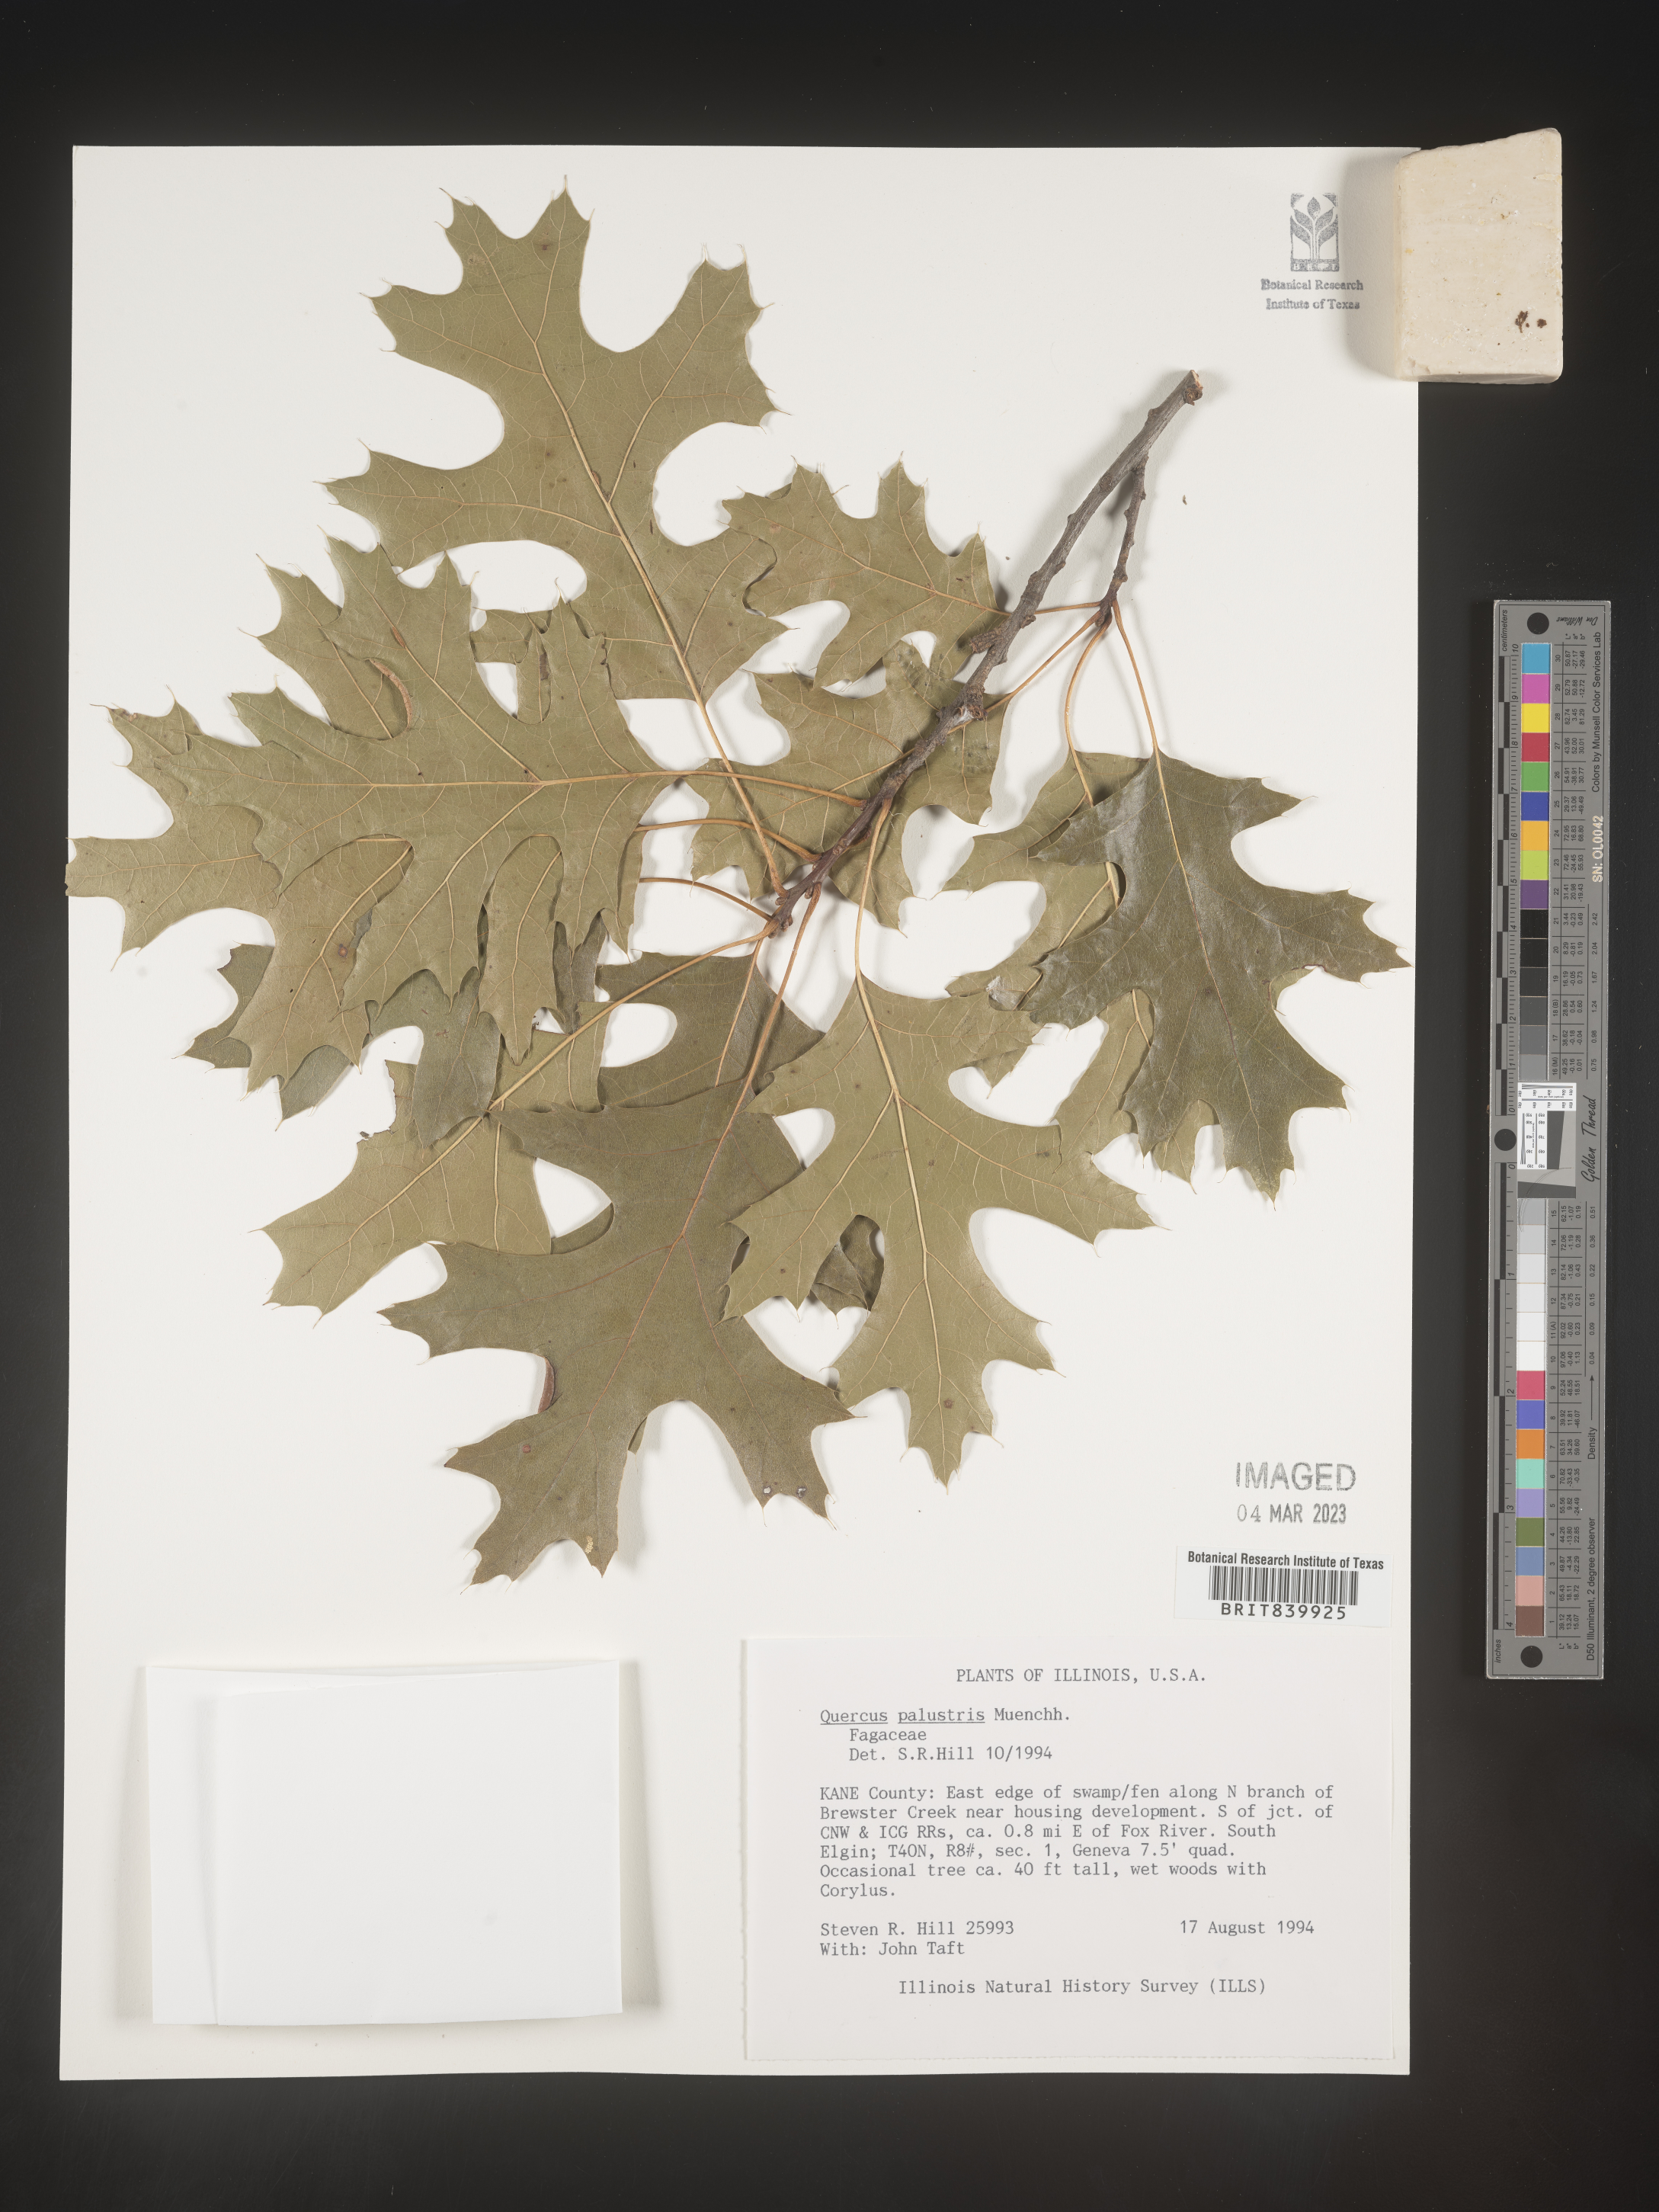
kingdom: Plantae
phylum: Tracheophyta
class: Magnoliopsida
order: Fagales
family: Fagaceae
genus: Quercus
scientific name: Quercus palustris
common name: Pin oak
